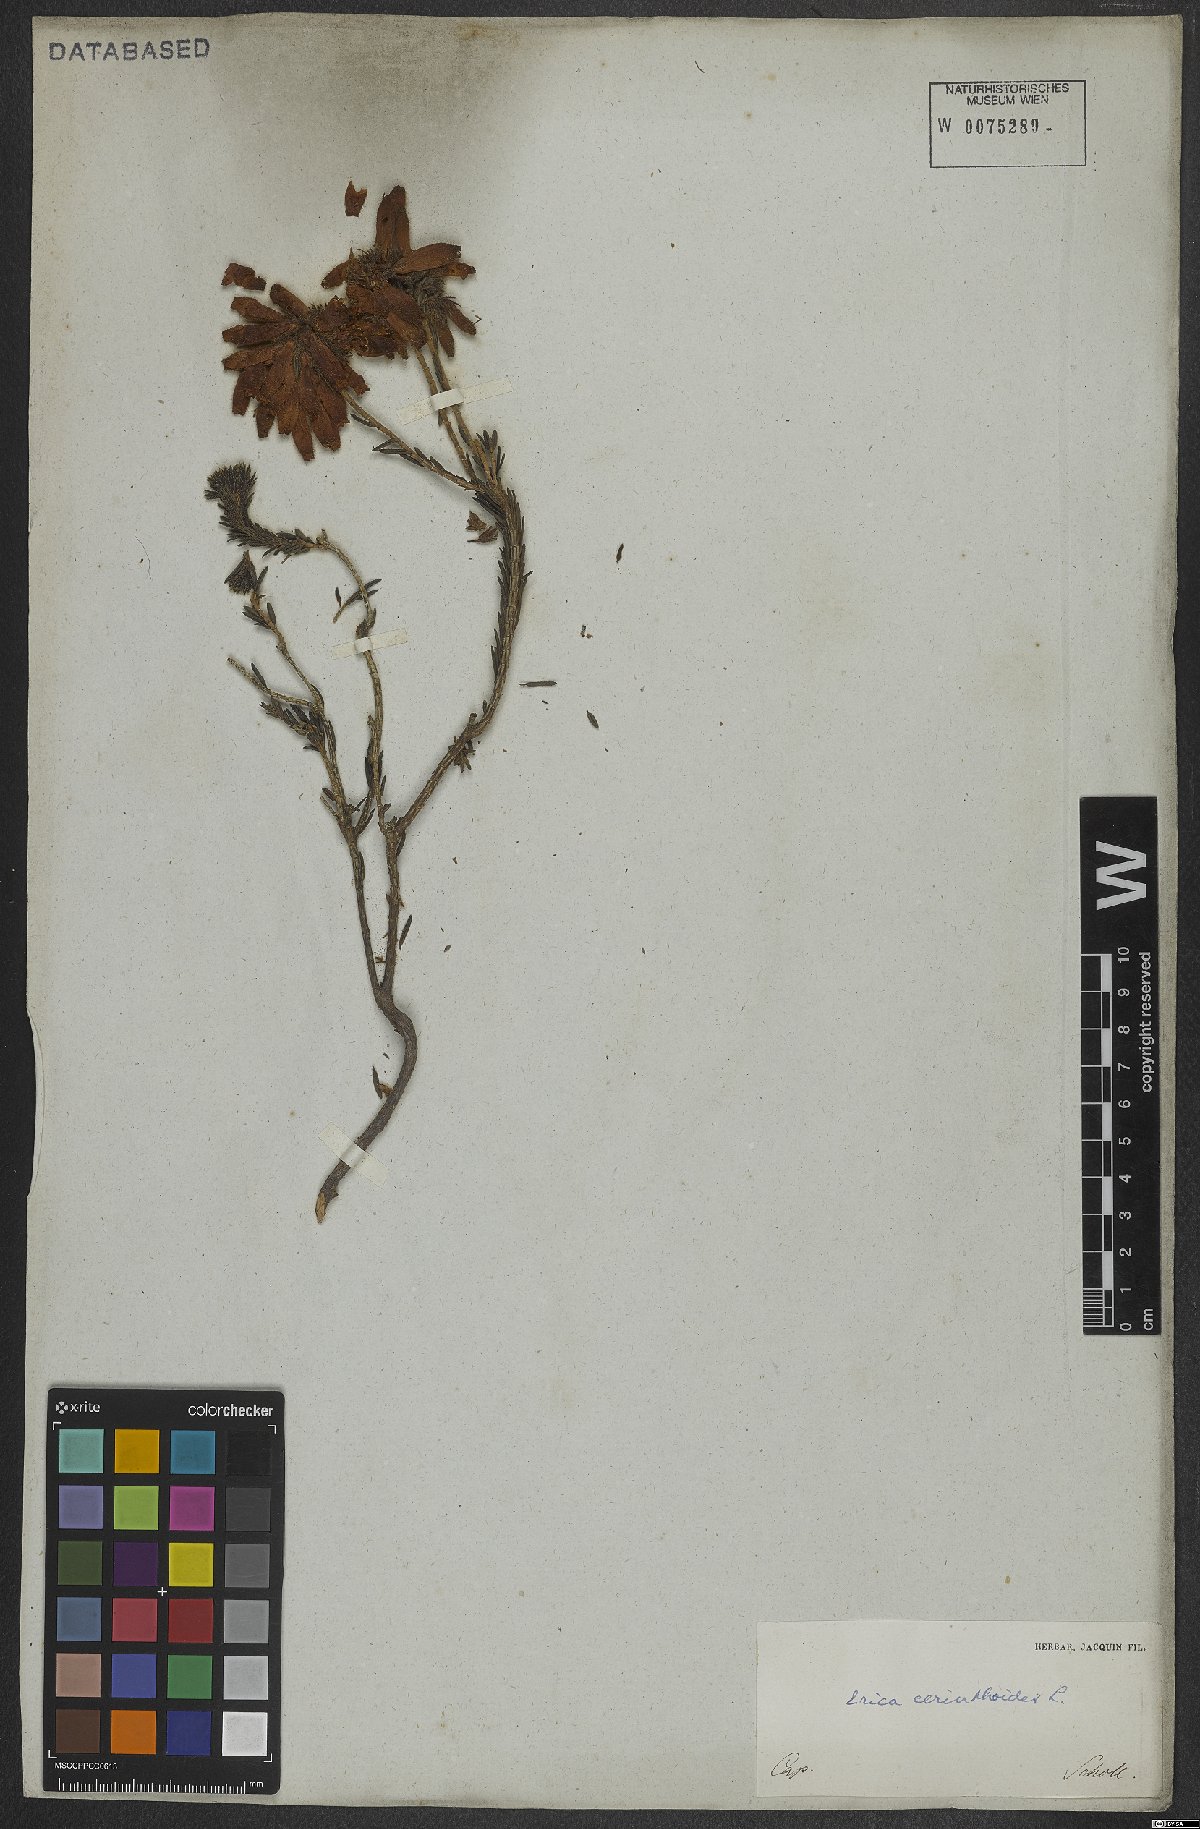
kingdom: Plantae
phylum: Tracheophyta
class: Magnoliopsida
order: Ericales
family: Ericaceae
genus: Erica
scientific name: Erica cerinthoides
